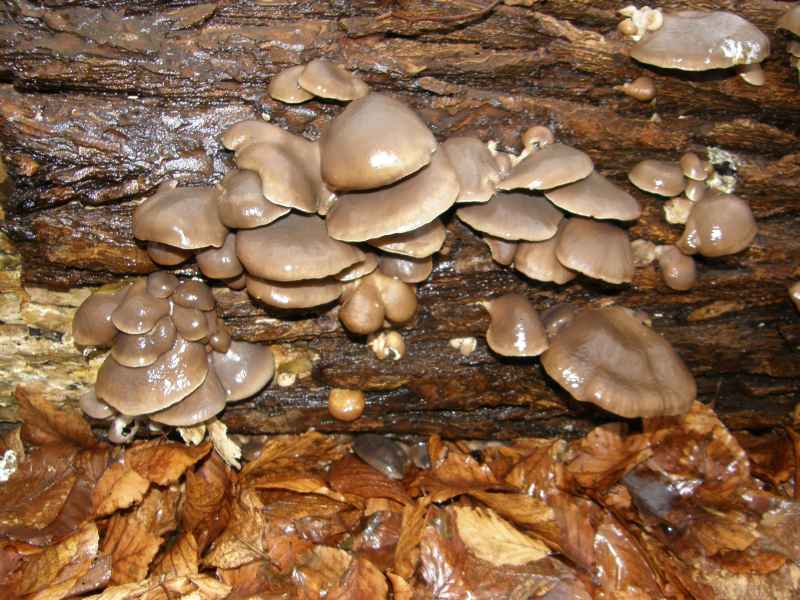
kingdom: Fungi
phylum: Basidiomycota
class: Agaricomycetes
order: Agaricales
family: Pleurotaceae
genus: Pleurotus
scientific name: Pleurotus ostreatus
